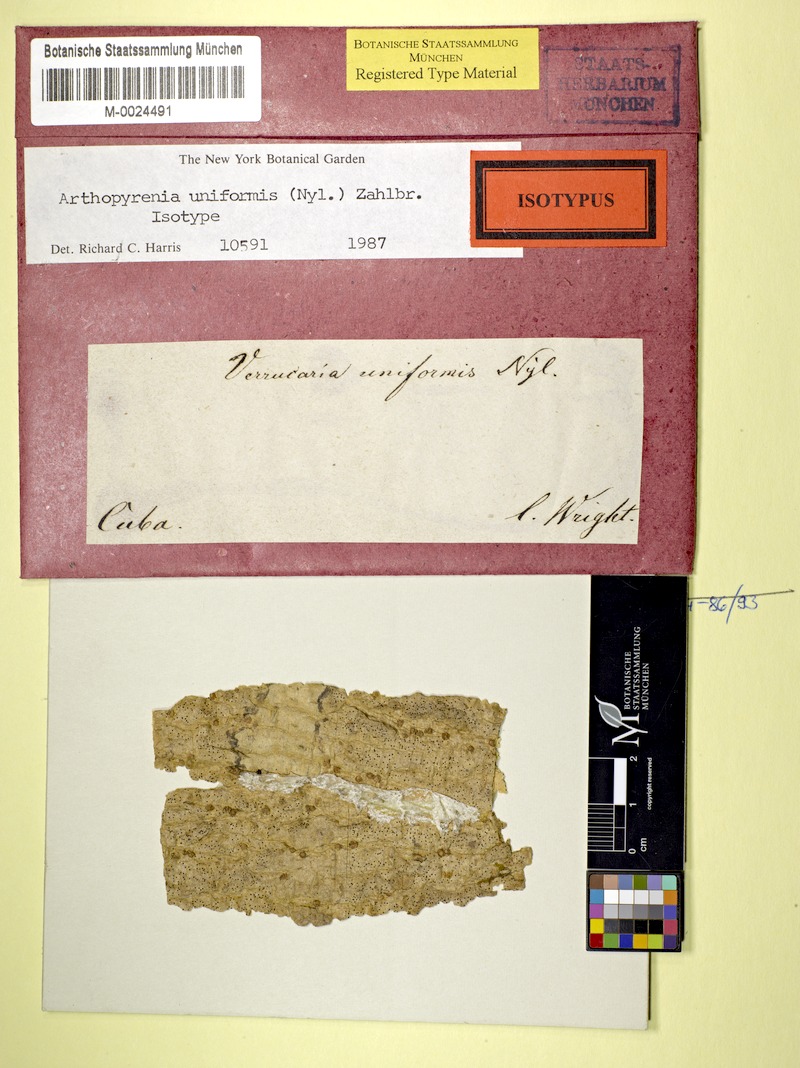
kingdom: Fungi
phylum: Ascomycota
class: Dothideomycetes
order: Pleosporales
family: Arthopyreniaceae
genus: Arthopyrenia
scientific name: Arthopyrenia uniformis
